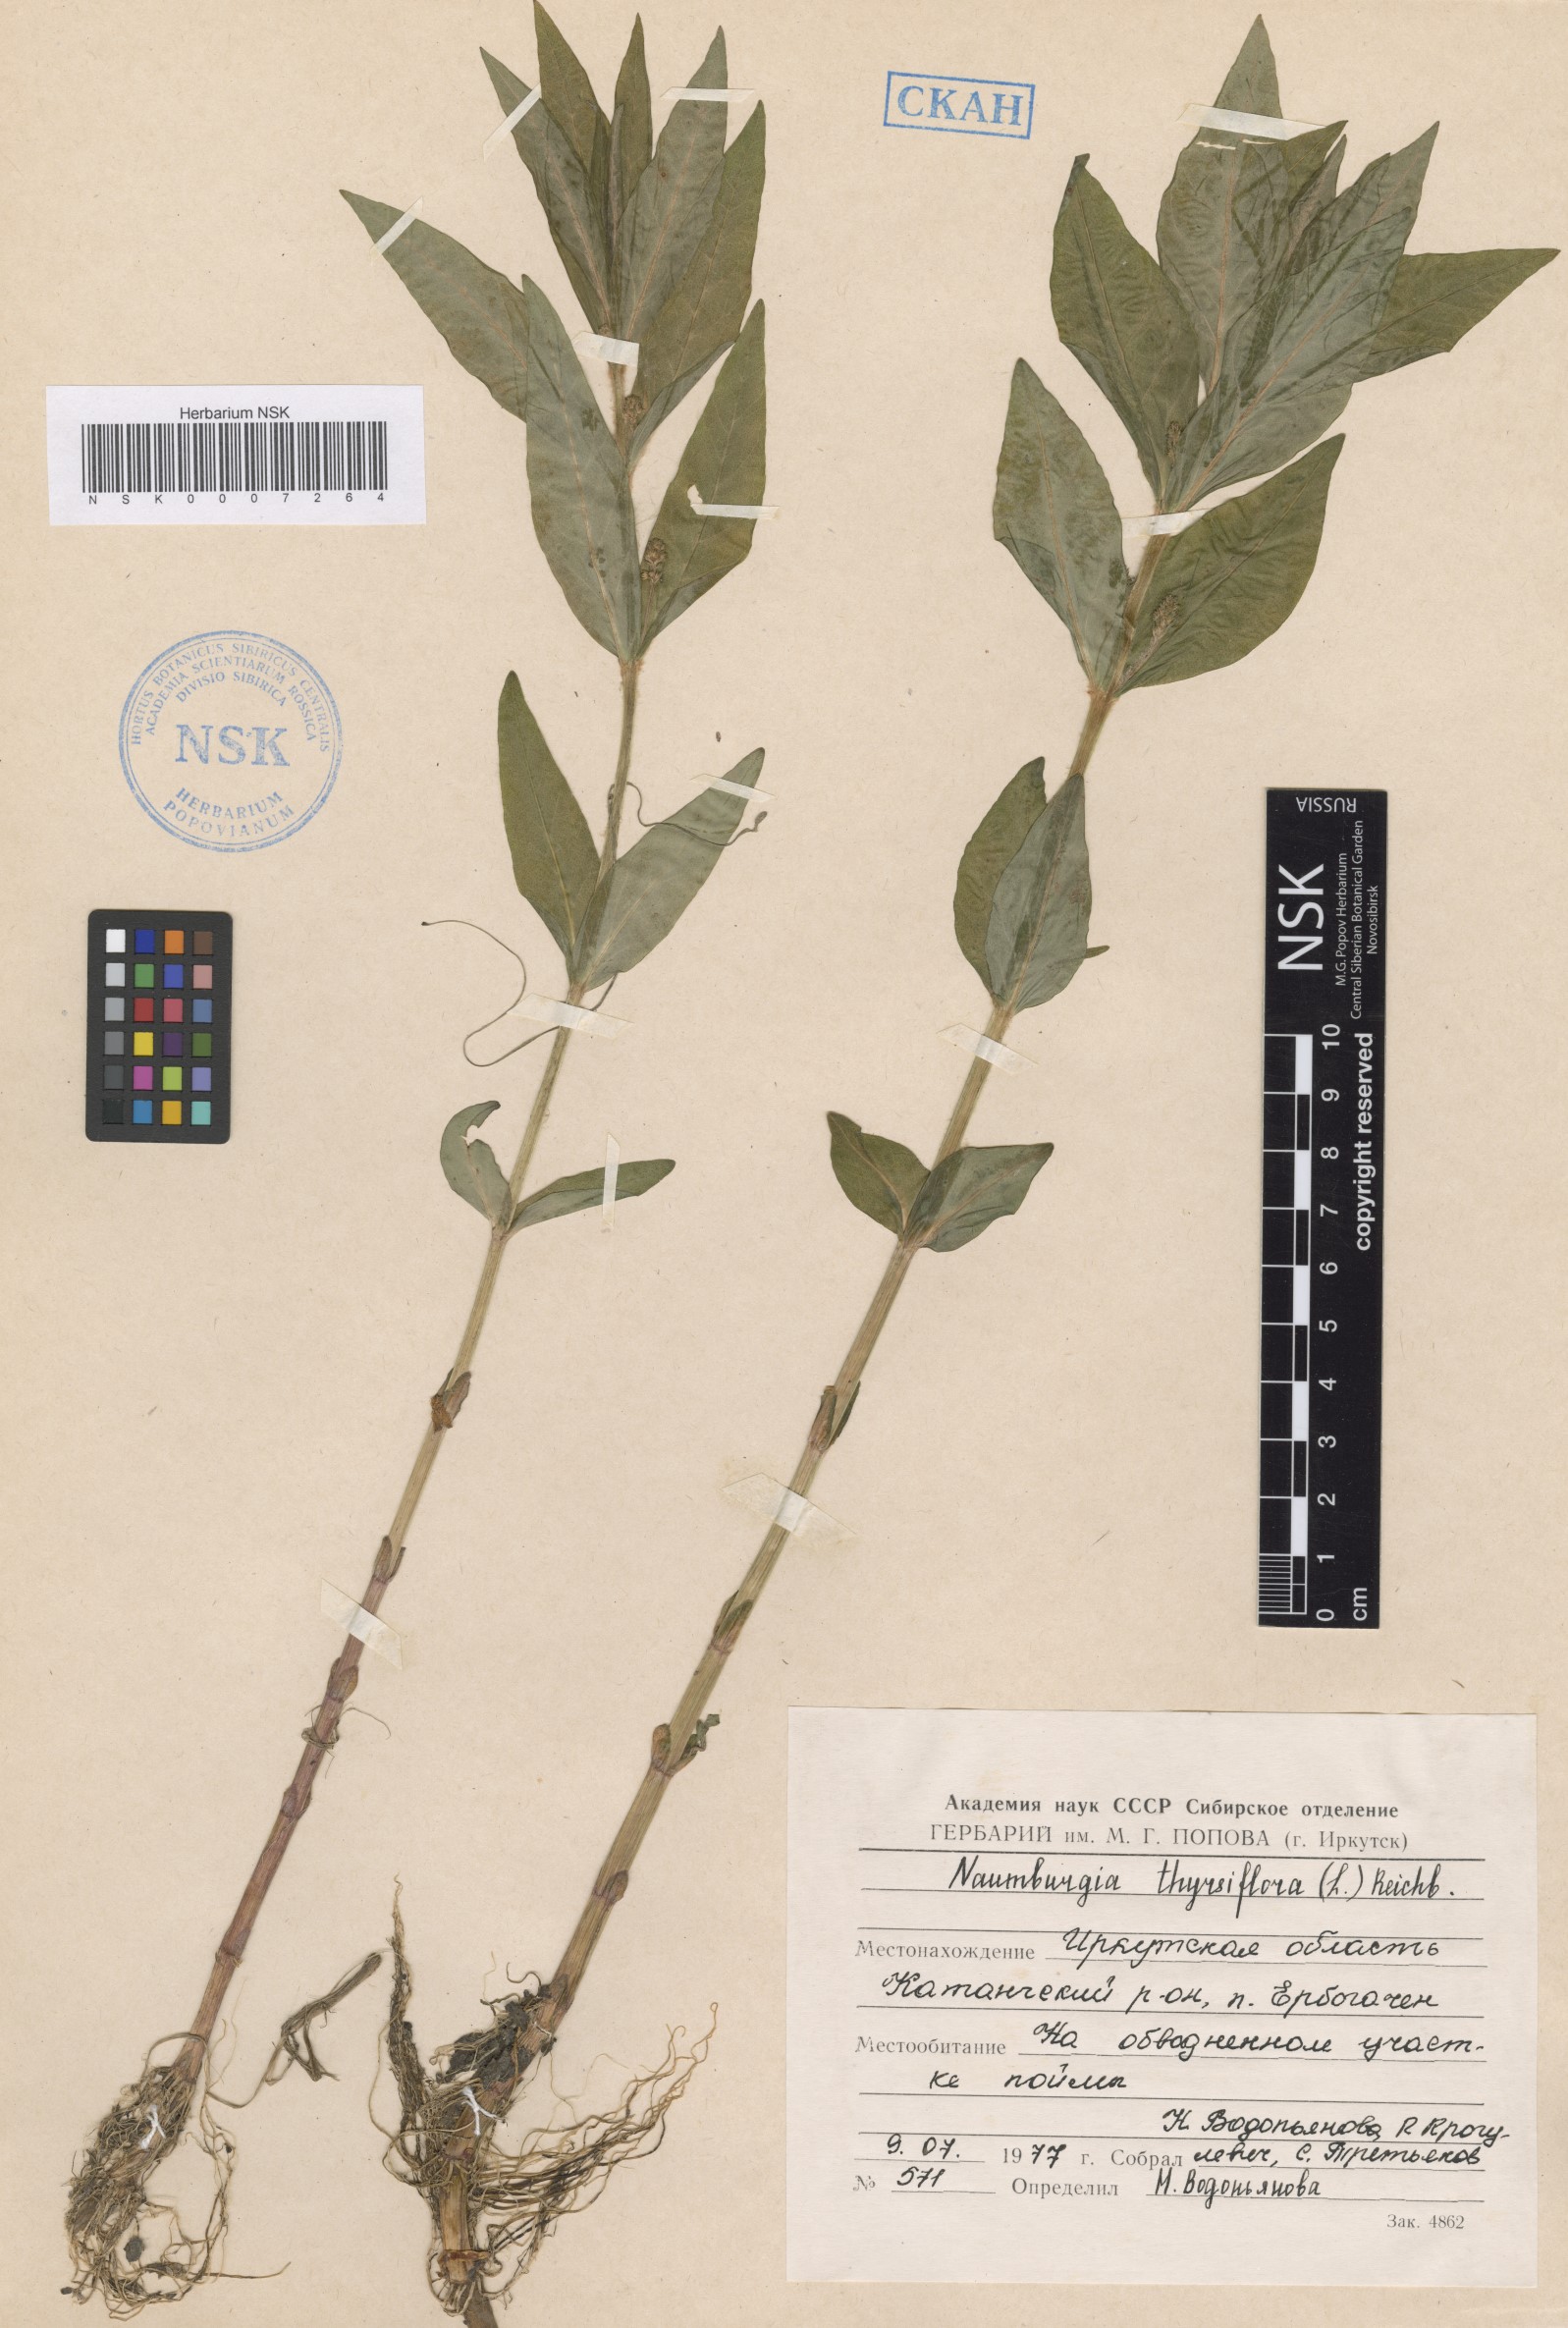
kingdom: Plantae
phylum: Tracheophyta
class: Magnoliopsida
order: Ericales
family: Primulaceae
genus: Lysimachia
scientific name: Lysimachia thyrsiflora
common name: Tufted loosestrife
